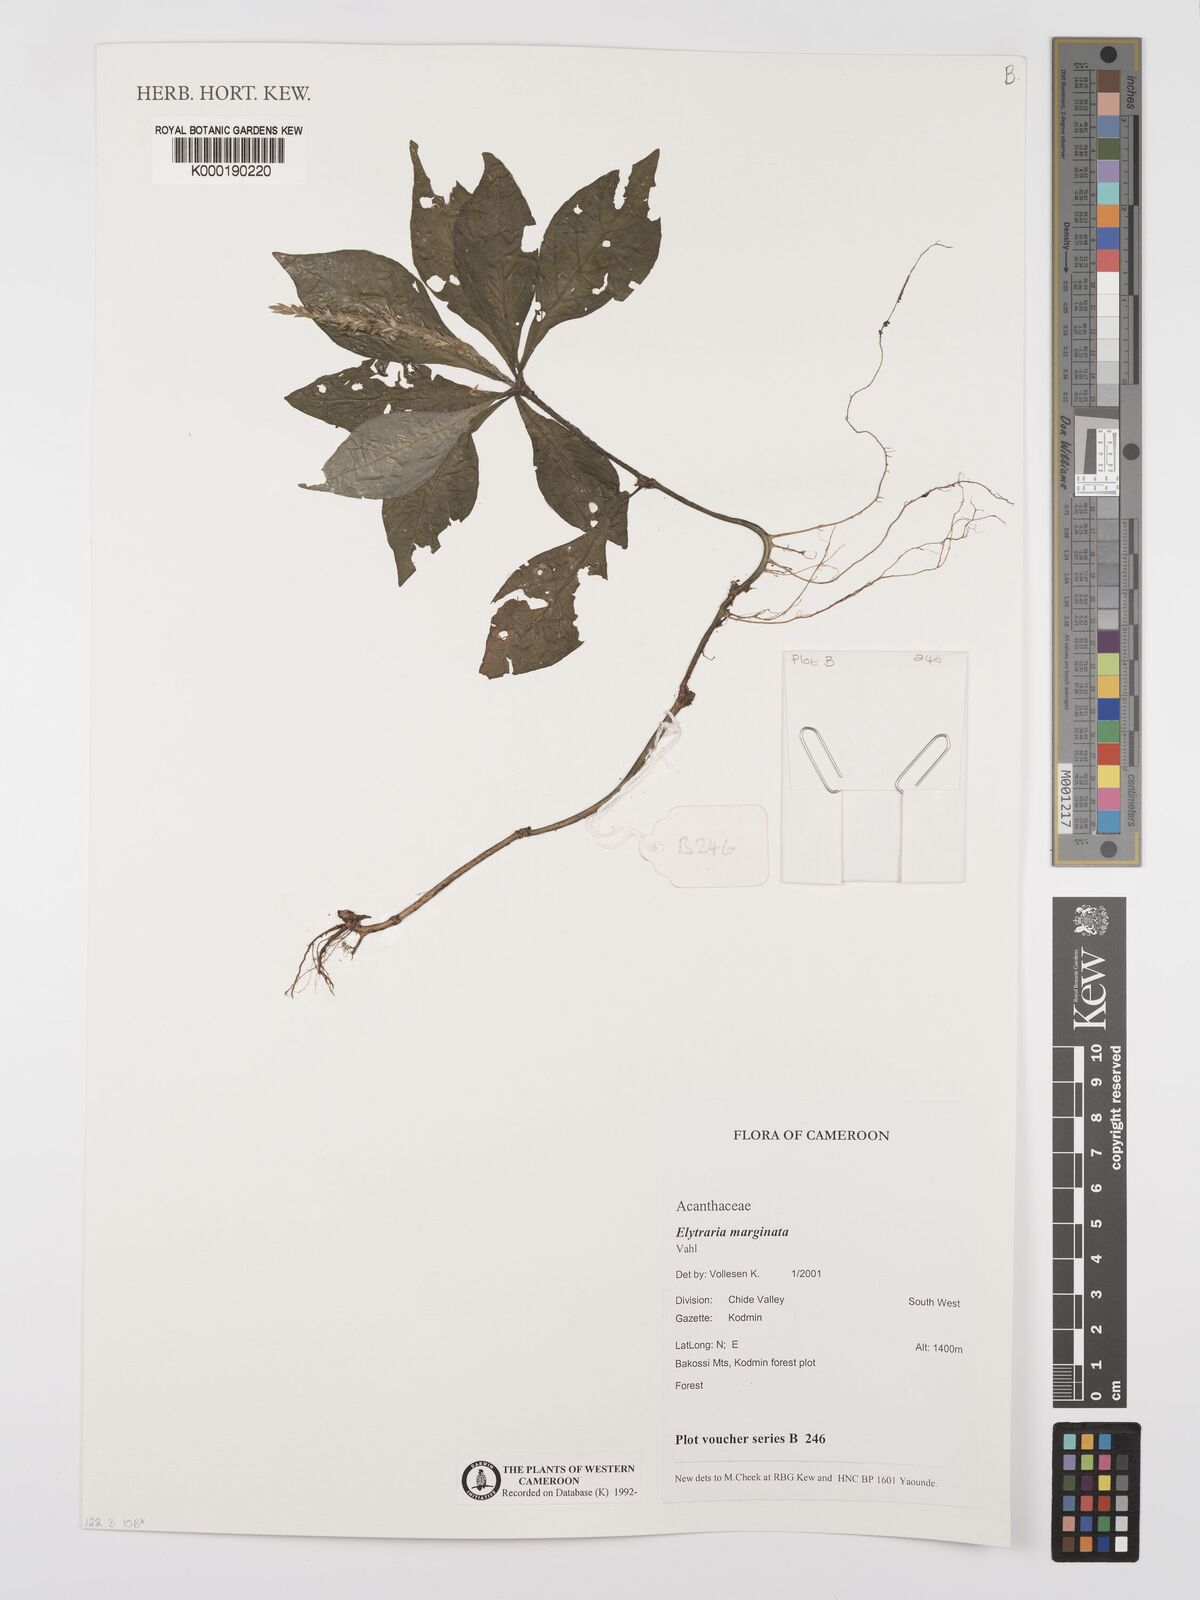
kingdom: Plantae
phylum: Tracheophyta
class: Magnoliopsida
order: Lamiales
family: Acanthaceae
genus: Elytraria
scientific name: Elytraria marginata
